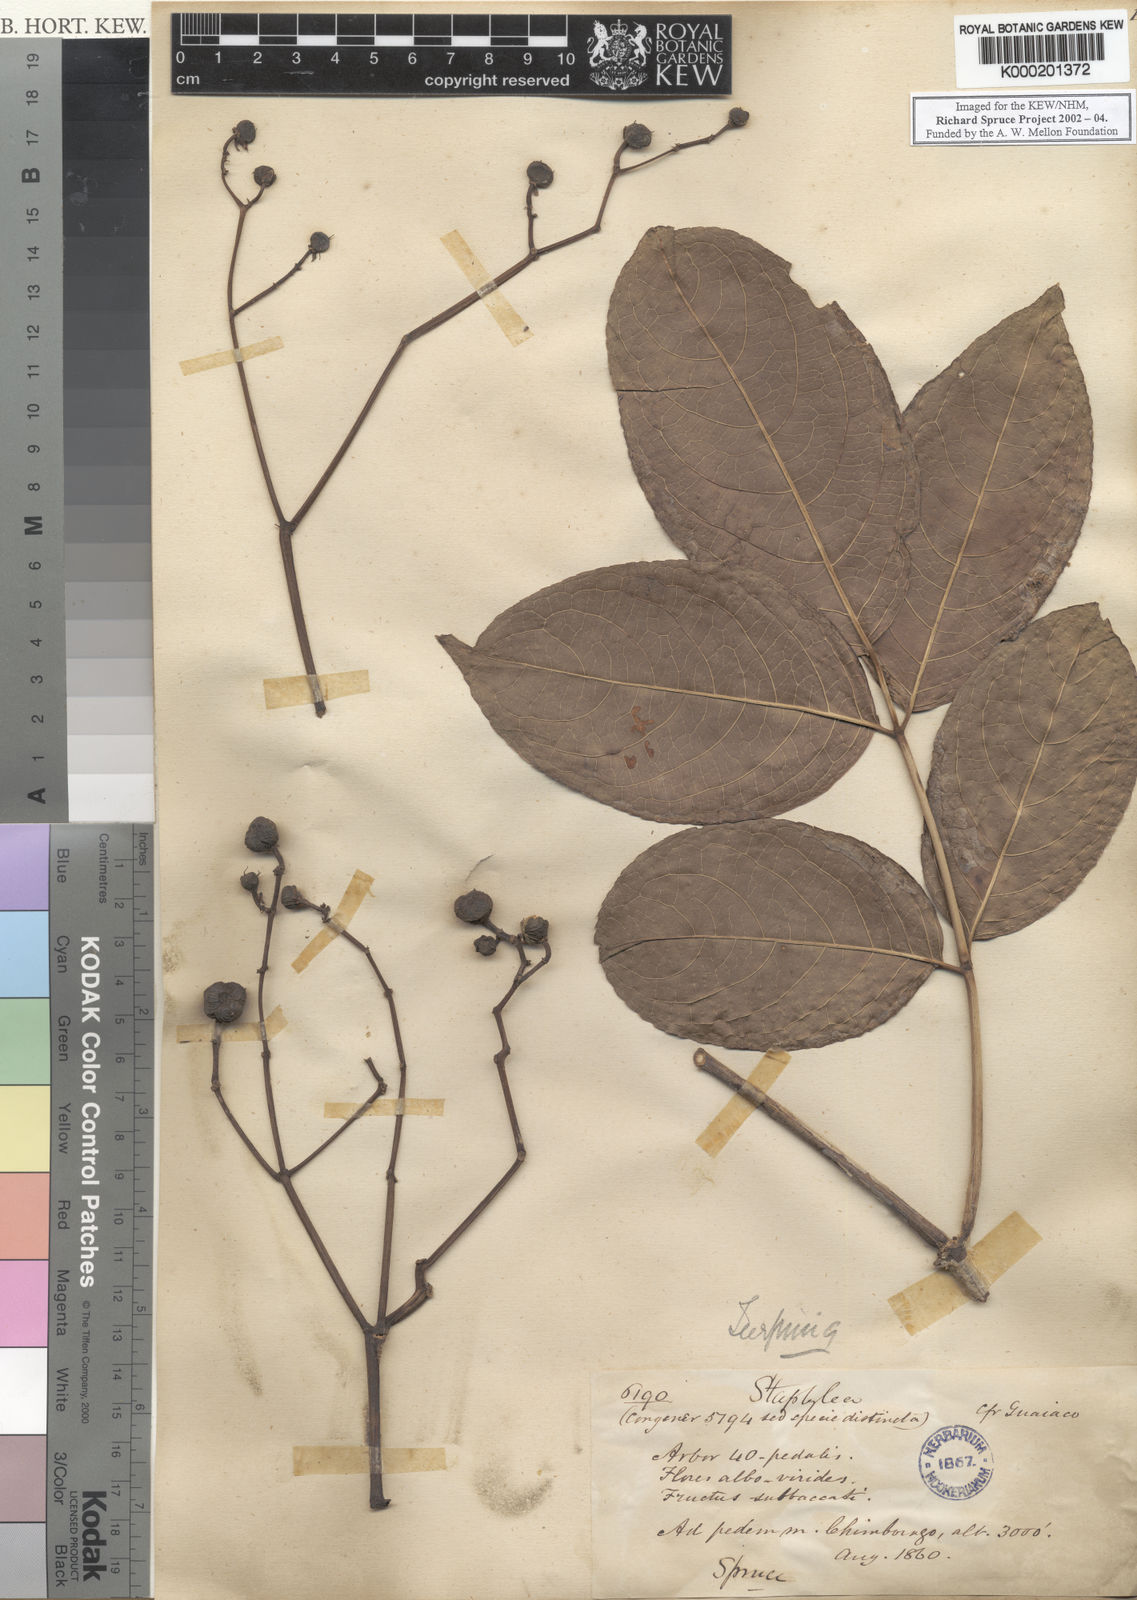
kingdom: Plantae
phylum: Tracheophyta
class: Magnoliopsida
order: Crossosomatales
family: Staphyleaceae
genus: Turpinia
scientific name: Turpinia
